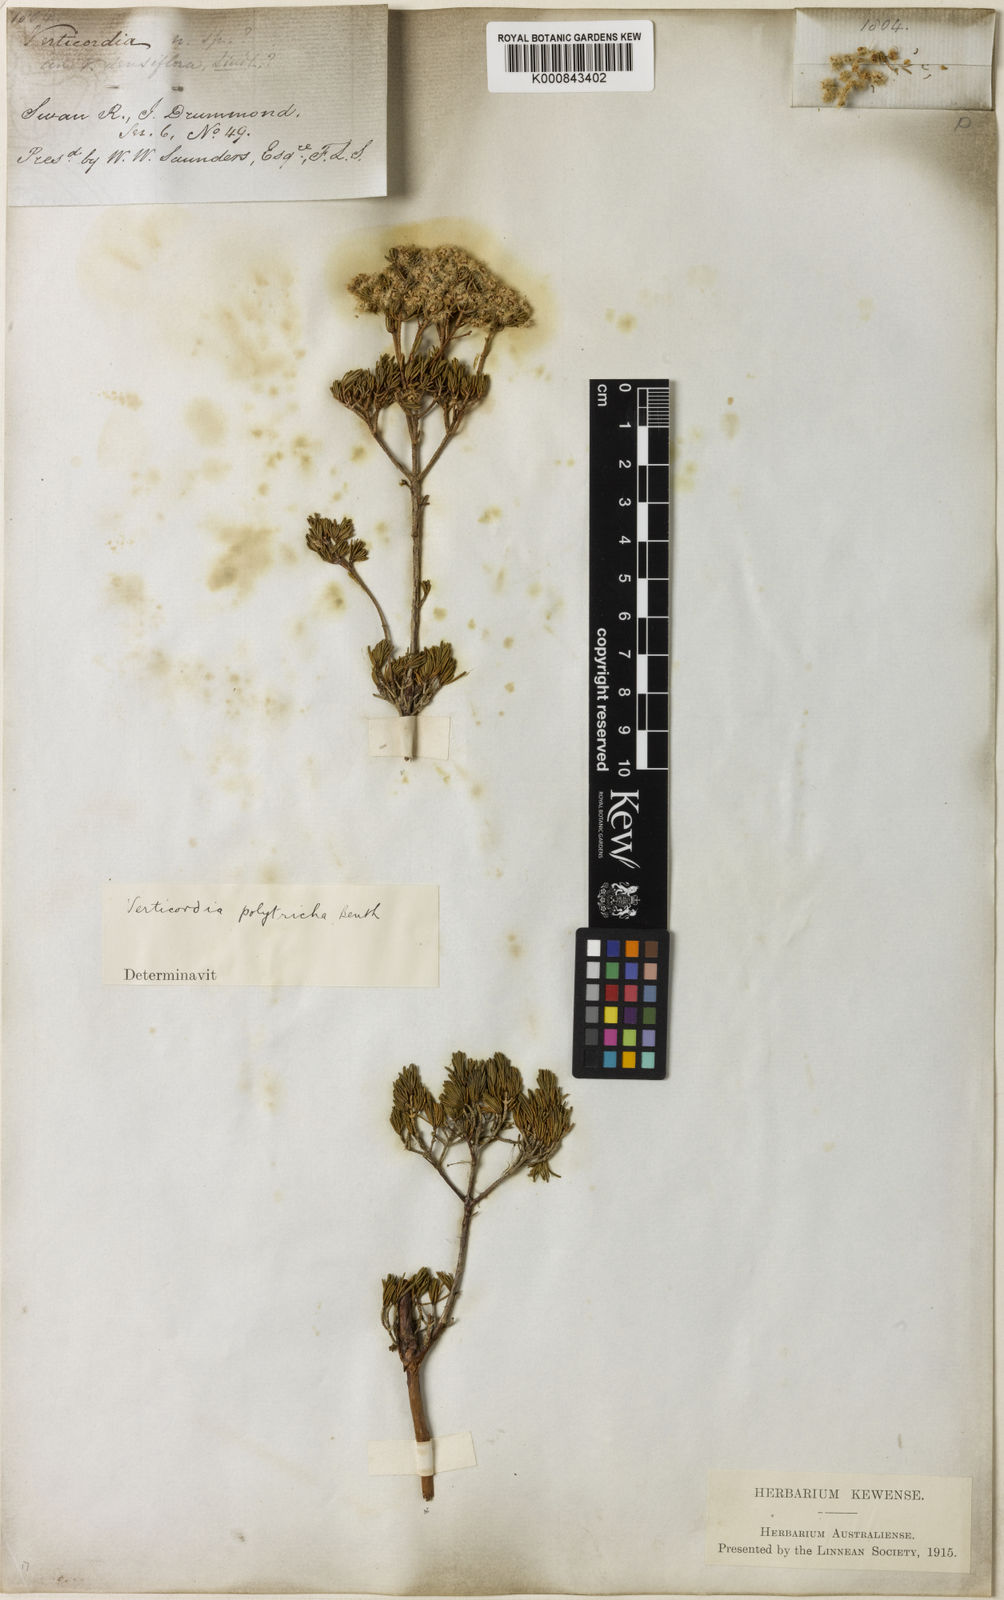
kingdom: Plantae
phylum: Tracheophyta
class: Magnoliopsida
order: Myrtales
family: Myrtaceae
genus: Verticordia
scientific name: Verticordia polytricha
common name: Northern-cauliflower
